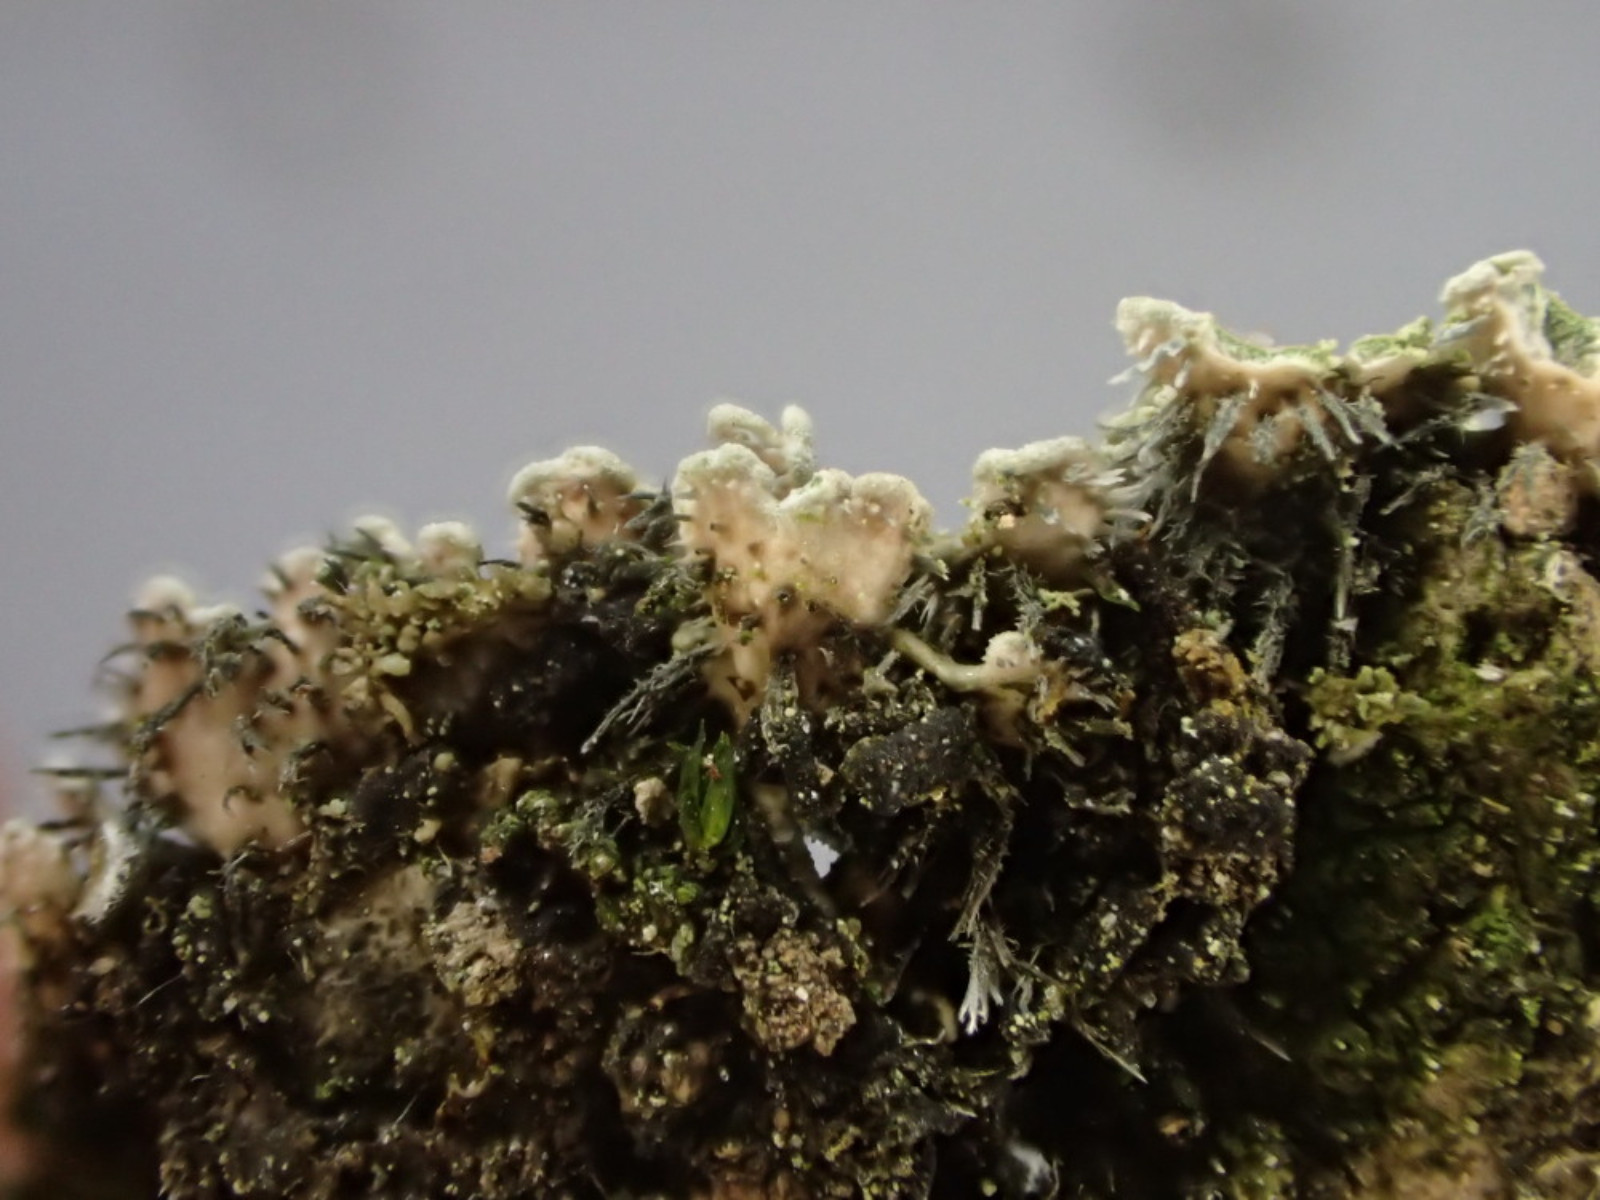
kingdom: Fungi
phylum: Ascomycota
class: Lecanoromycetes
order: Caliciales
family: Physciaceae
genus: Physconia
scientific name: Physconia perisidiosa
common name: liden dugrosetlav
